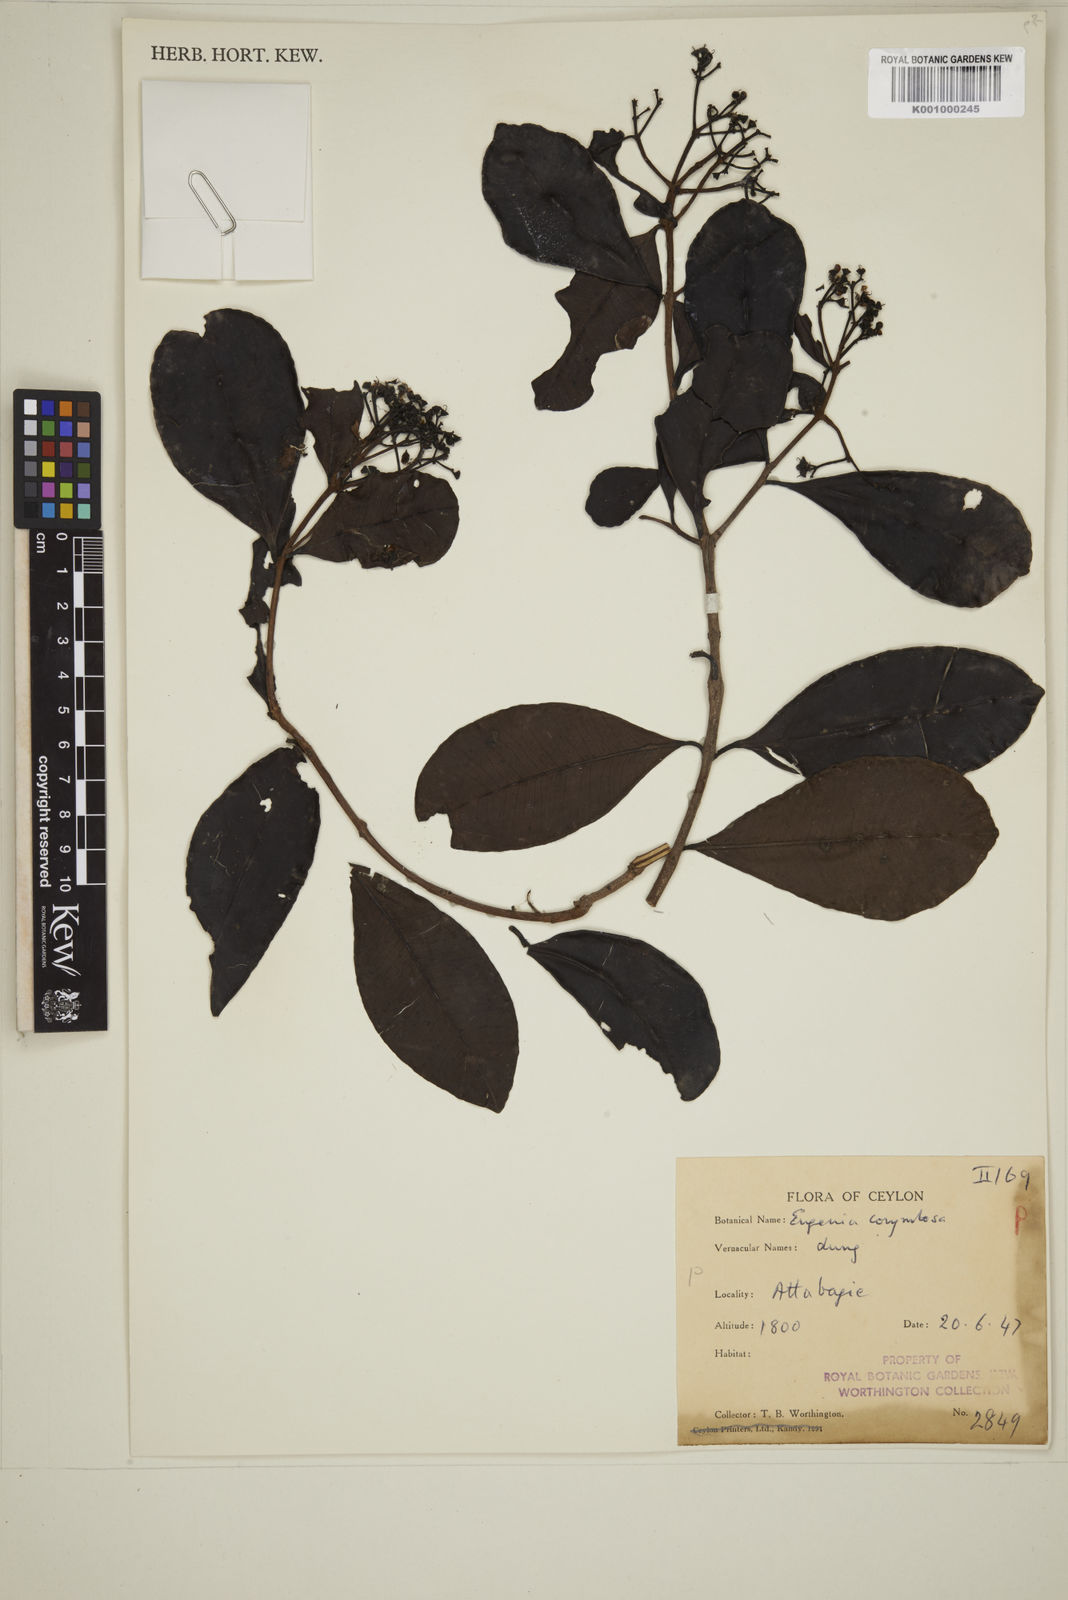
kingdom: Plantae
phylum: Tracheophyta
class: Magnoliopsida
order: Myrtales
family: Myrtaceae
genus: Eugenia
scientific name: Eugenia
